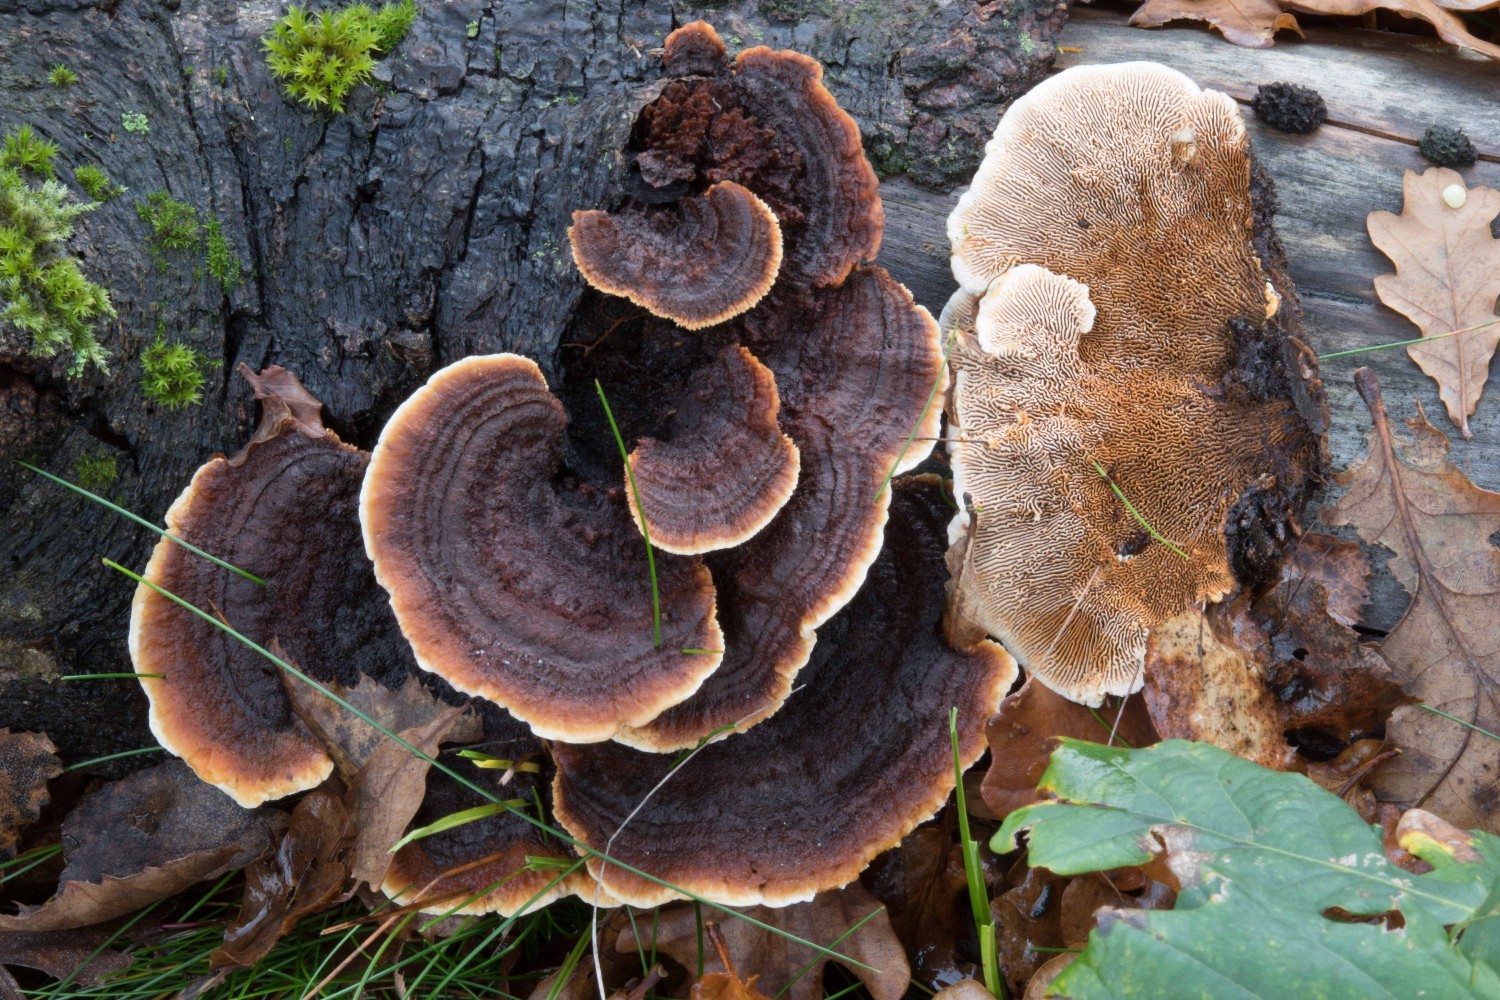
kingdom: Fungi
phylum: Basidiomycota
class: Agaricomycetes
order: Gloeophyllales
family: Gloeophyllaceae
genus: Gloeophyllum
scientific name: Gloeophyllum sepiarium
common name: fyrre-korkhat
